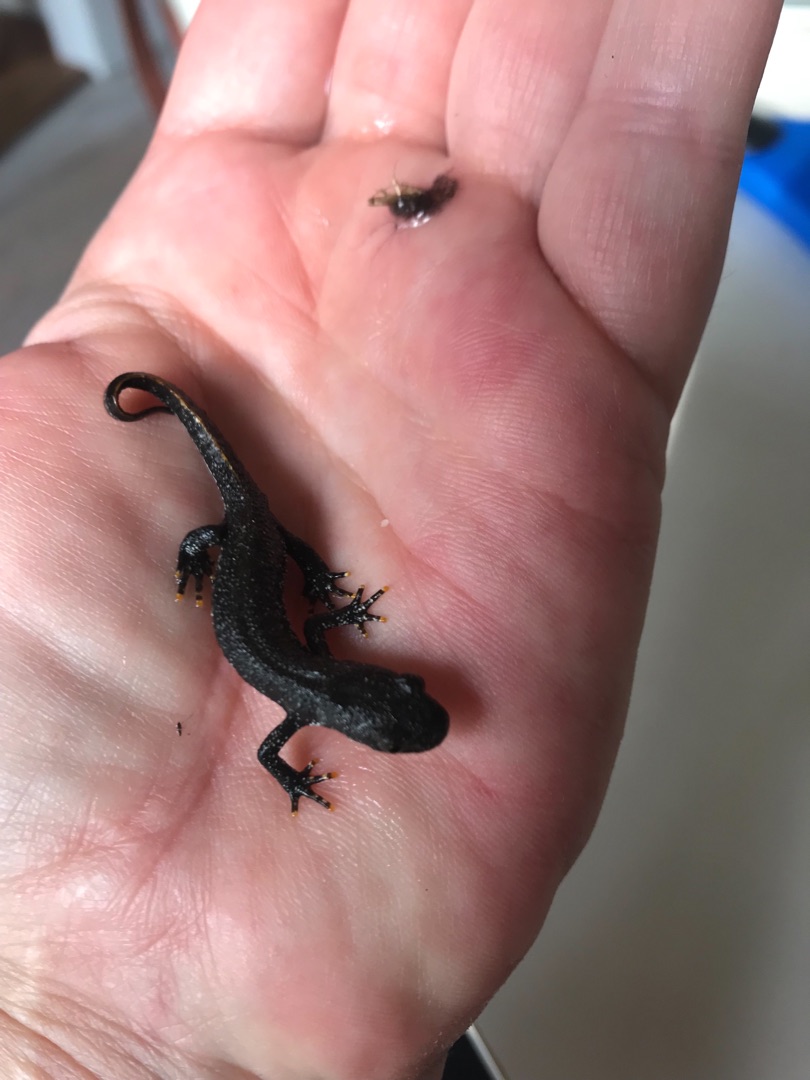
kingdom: Animalia
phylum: Chordata
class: Amphibia
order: Caudata
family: Salamandridae
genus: Triturus
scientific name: Triturus cristatus
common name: Stor vandsalamander
